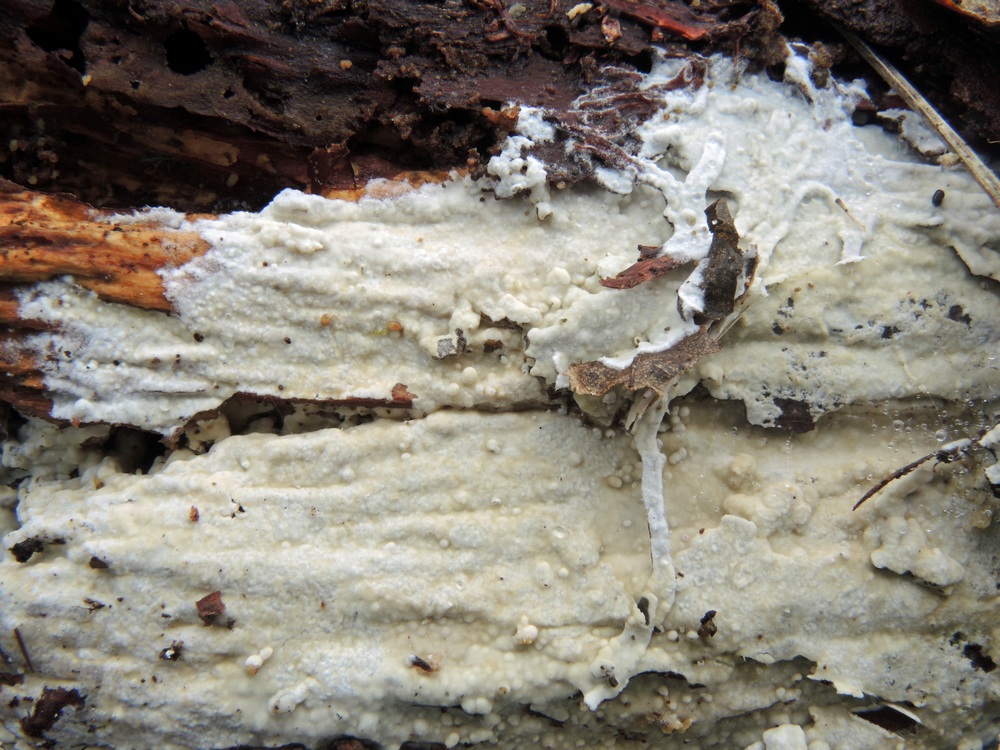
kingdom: Fungi
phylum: Basidiomycota
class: Agaricomycetes
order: Polyporales
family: Phanerochaetaceae
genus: Phanerochaete
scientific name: Phanerochaete sordida
